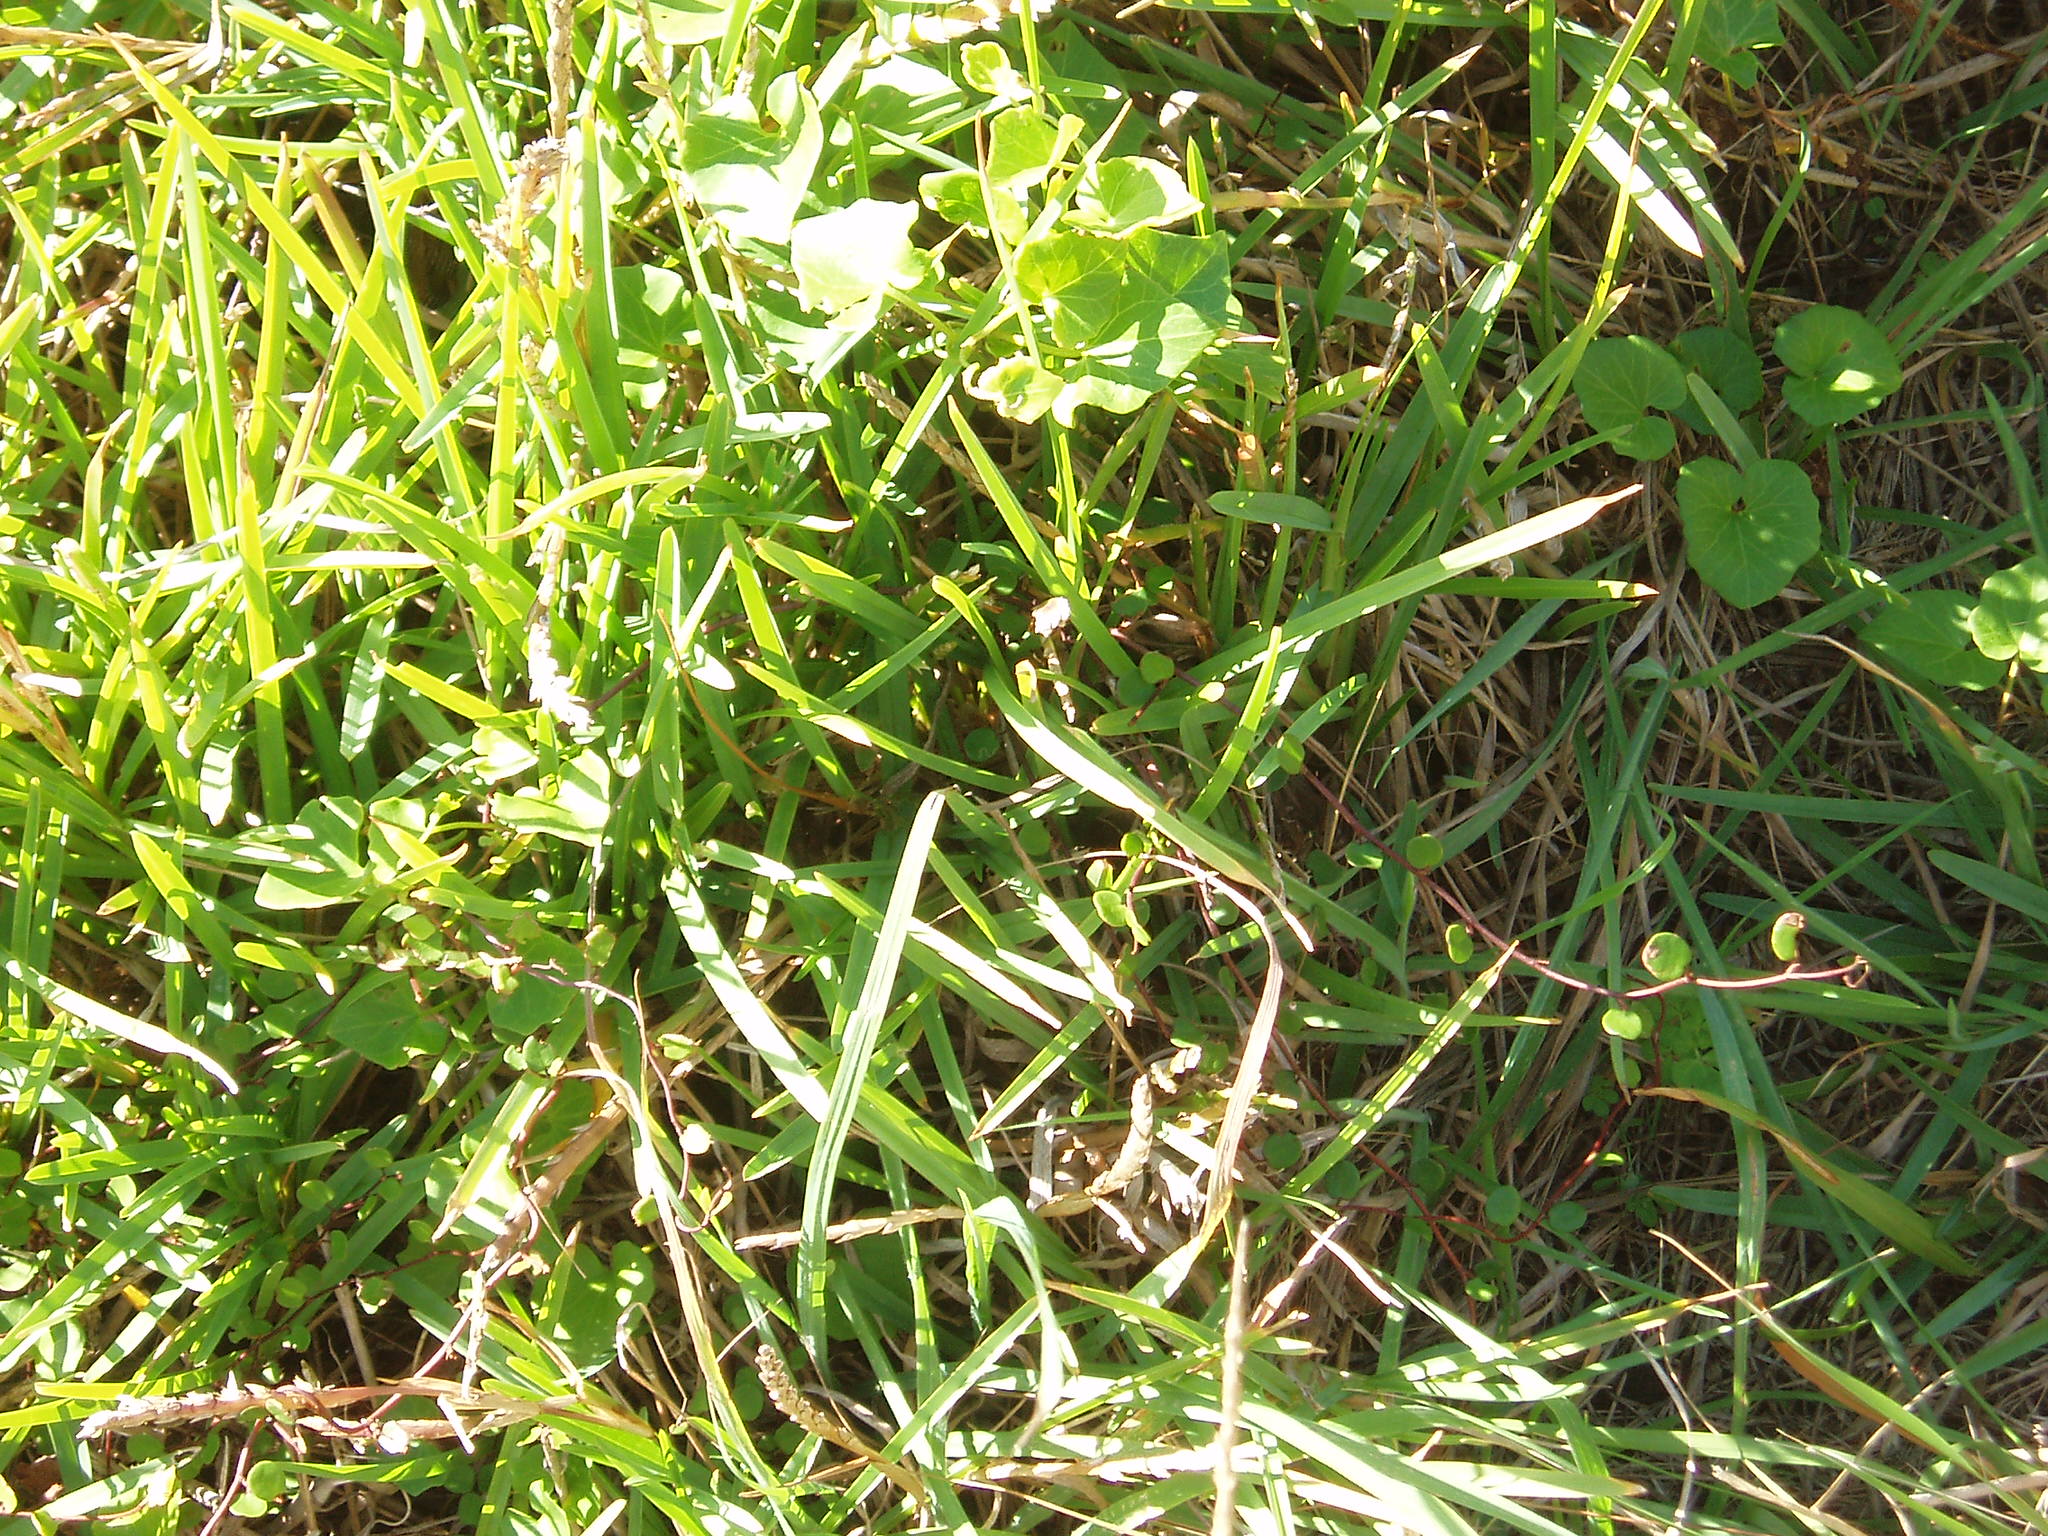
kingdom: Plantae
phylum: Tracheophyta
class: Magnoliopsida
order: Solanales
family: Convolvulaceae
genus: Calystegia
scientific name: Calystegia
